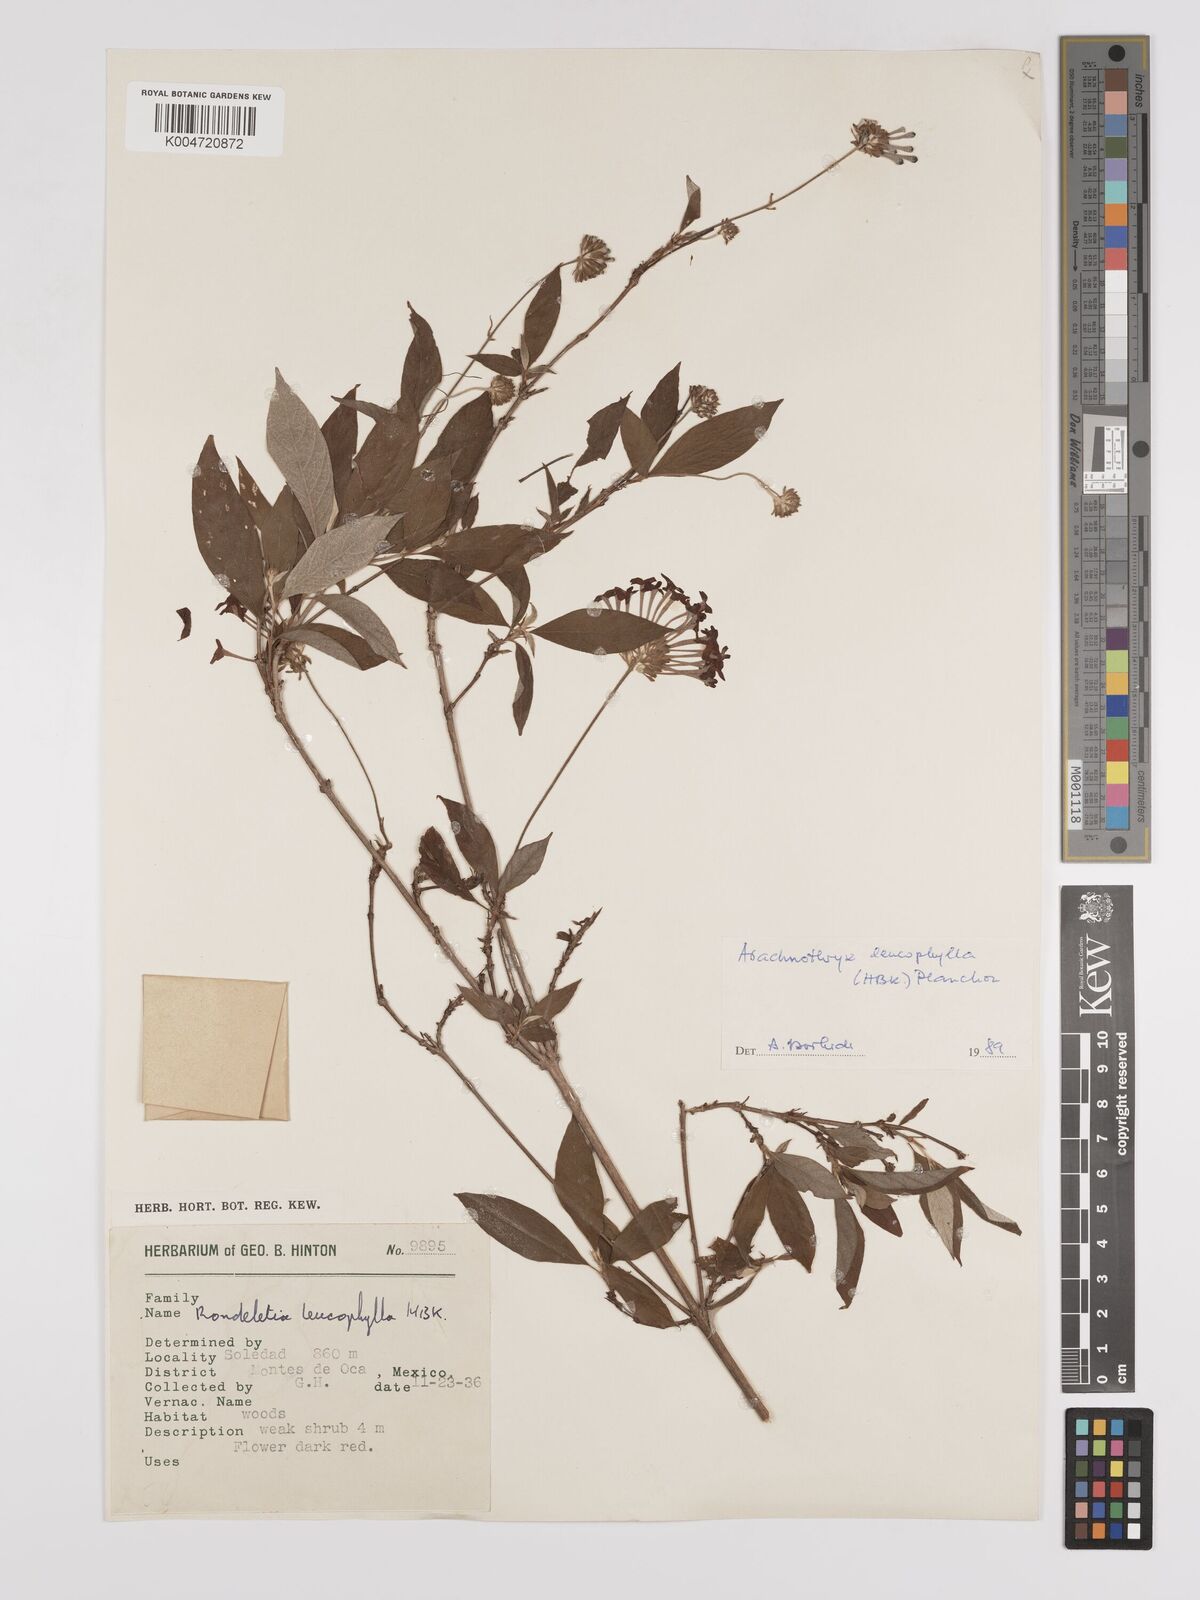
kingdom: Plantae
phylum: Tracheophyta
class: Magnoliopsida
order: Gentianales
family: Rubiaceae
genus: Arachnothryx
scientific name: Arachnothryx leucophylla
